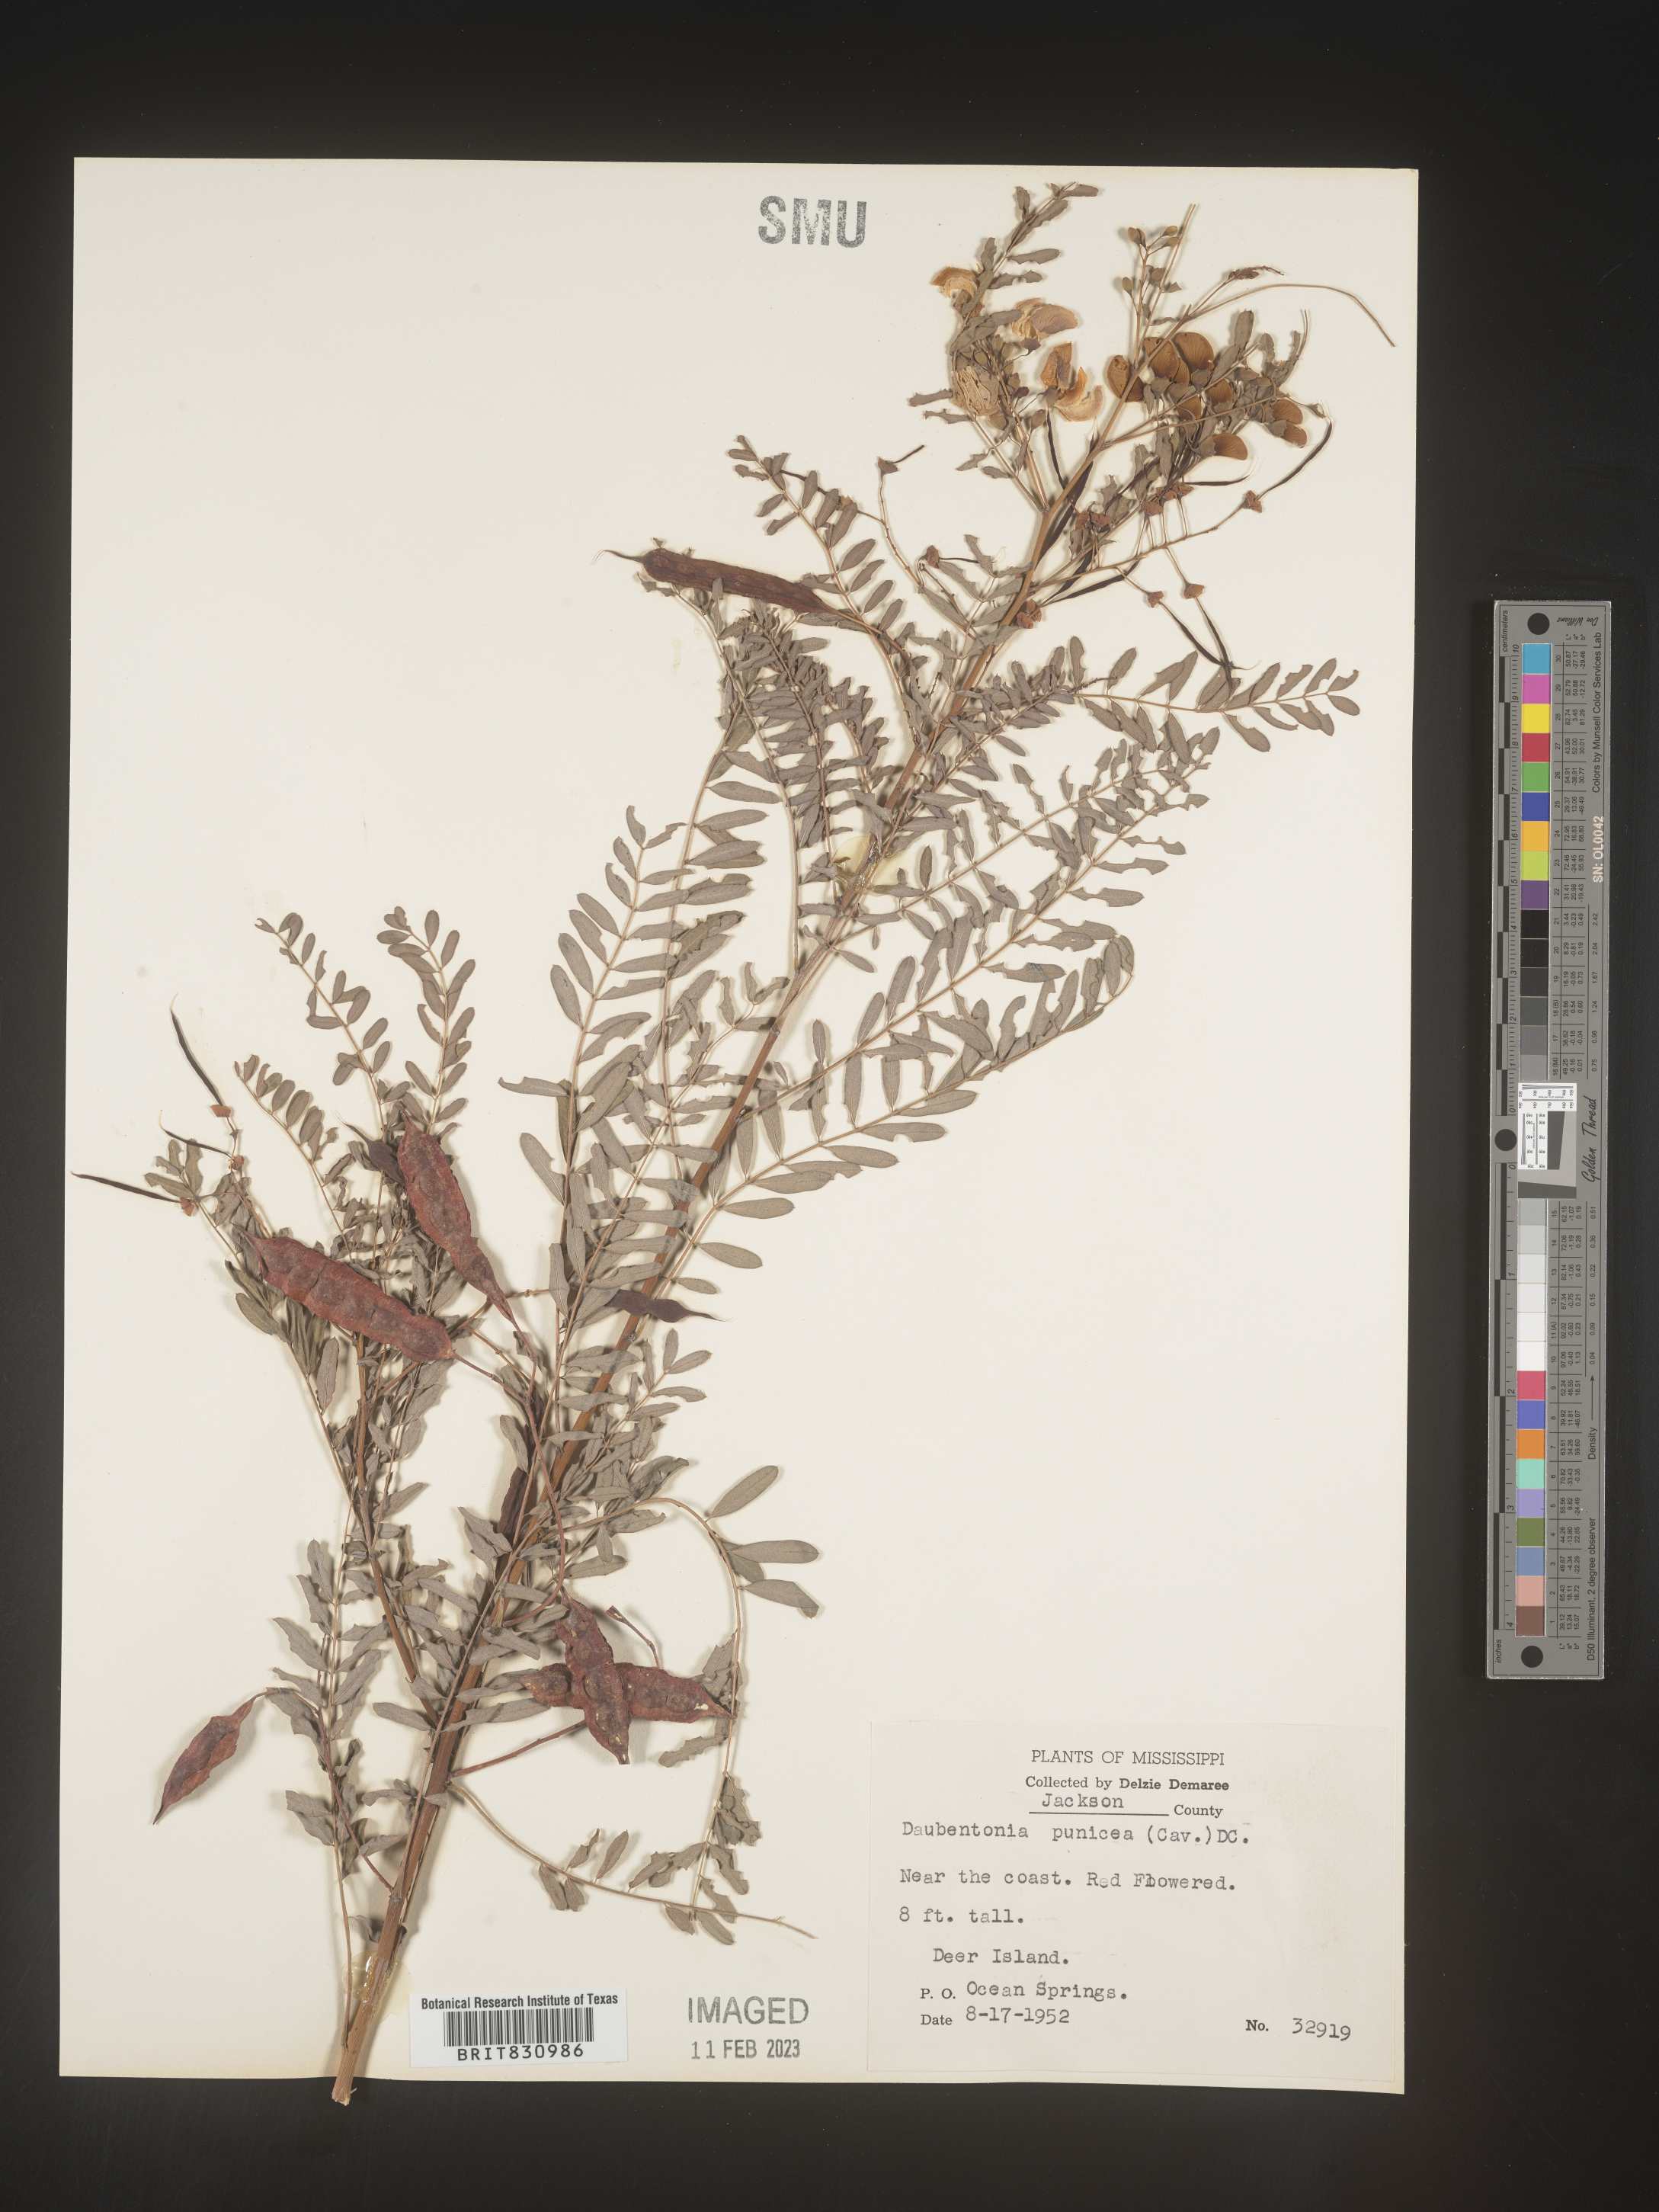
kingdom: Plantae
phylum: Tracheophyta
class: Magnoliopsida
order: Fabales
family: Fabaceae
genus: Sesbania
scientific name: Sesbania punicea
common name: Rattlebox
